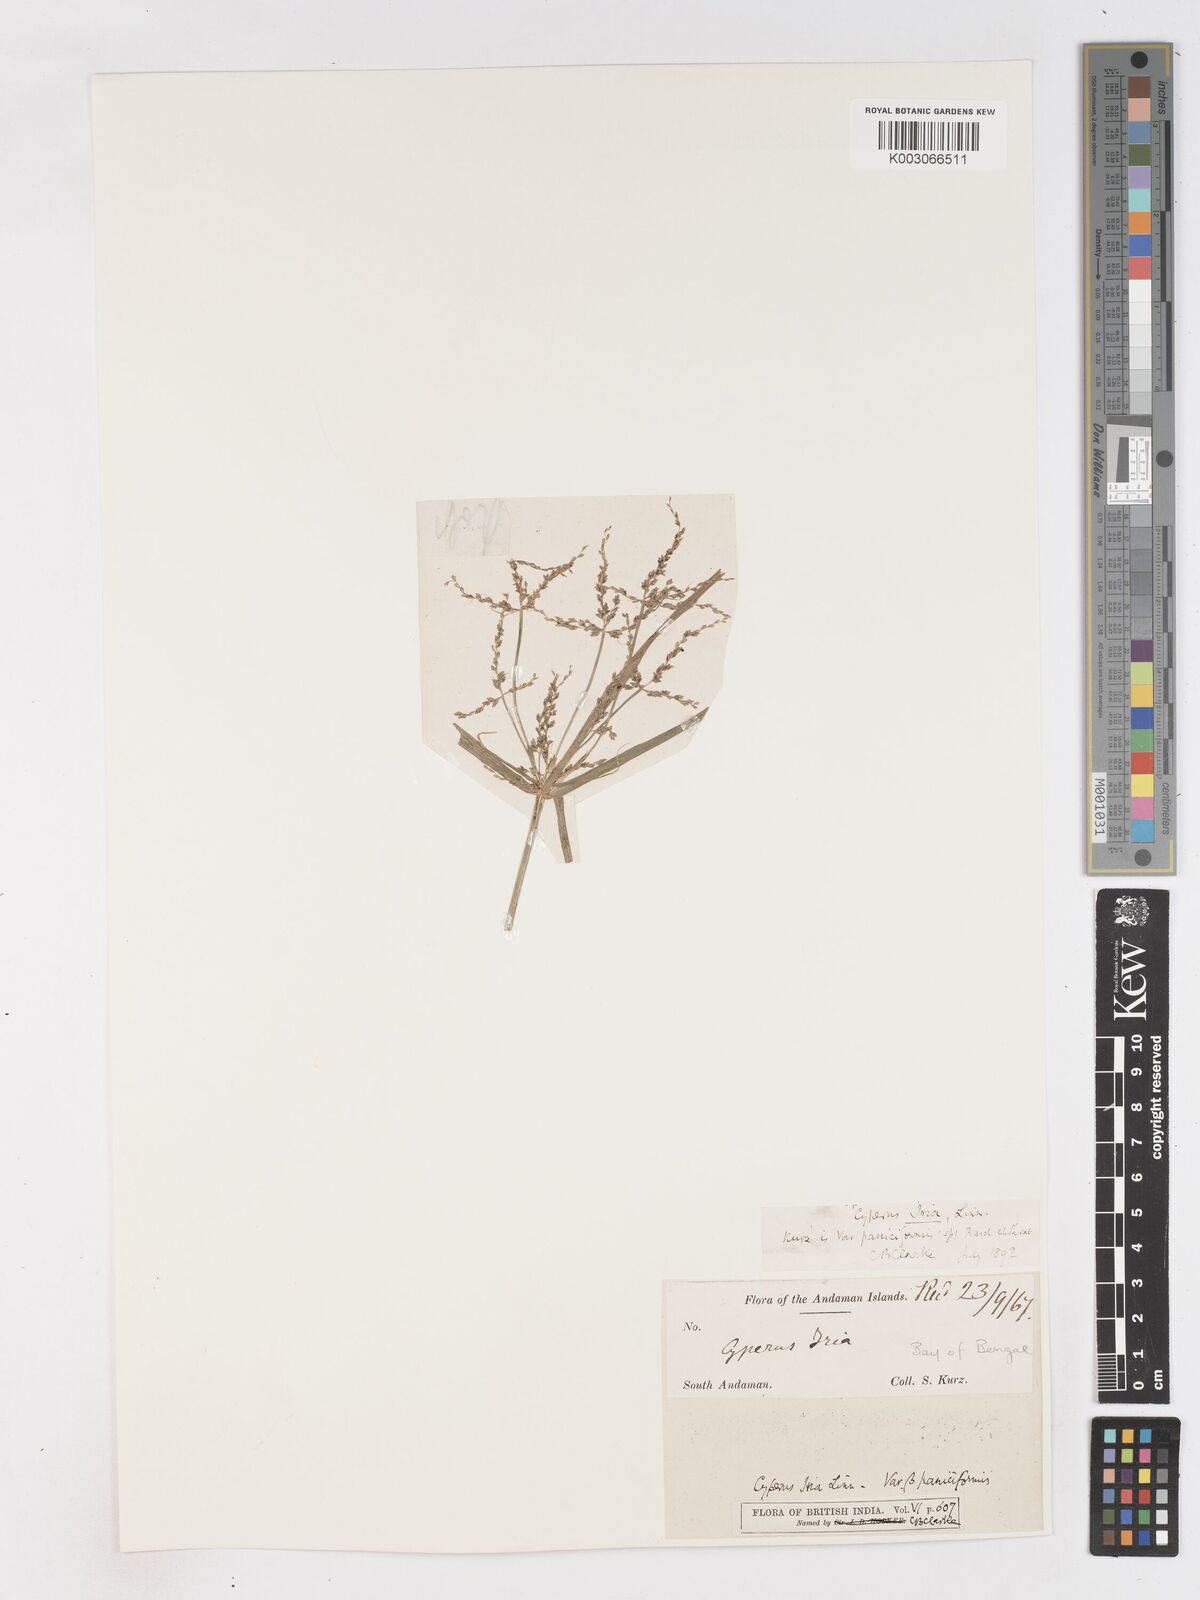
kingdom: Plantae
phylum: Tracheophyta
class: Liliopsida
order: Poales
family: Cyperaceae
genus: Cyperus
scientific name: Cyperus iria
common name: Ricefield flatsedge
